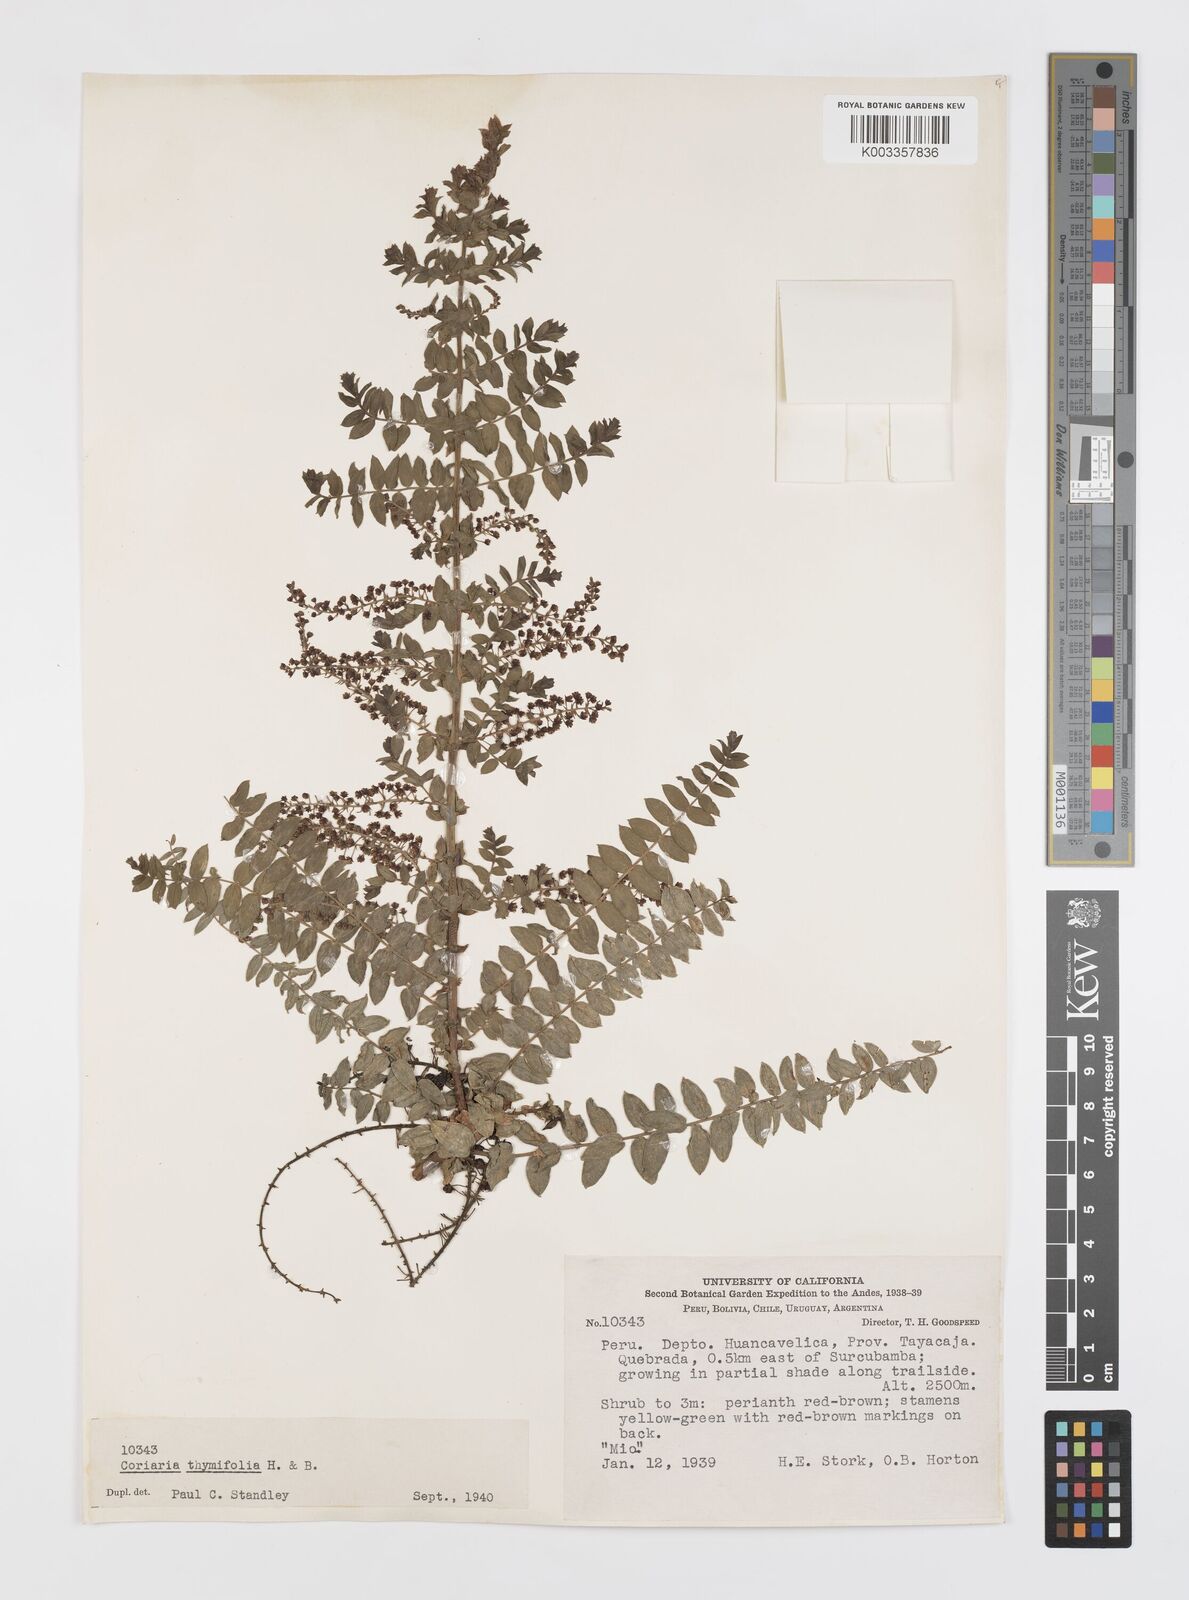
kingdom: Plantae
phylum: Tracheophyta
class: Magnoliopsida
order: Cucurbitales
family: Coriariaceae
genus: Coriaria
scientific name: Coriaria microphylla
